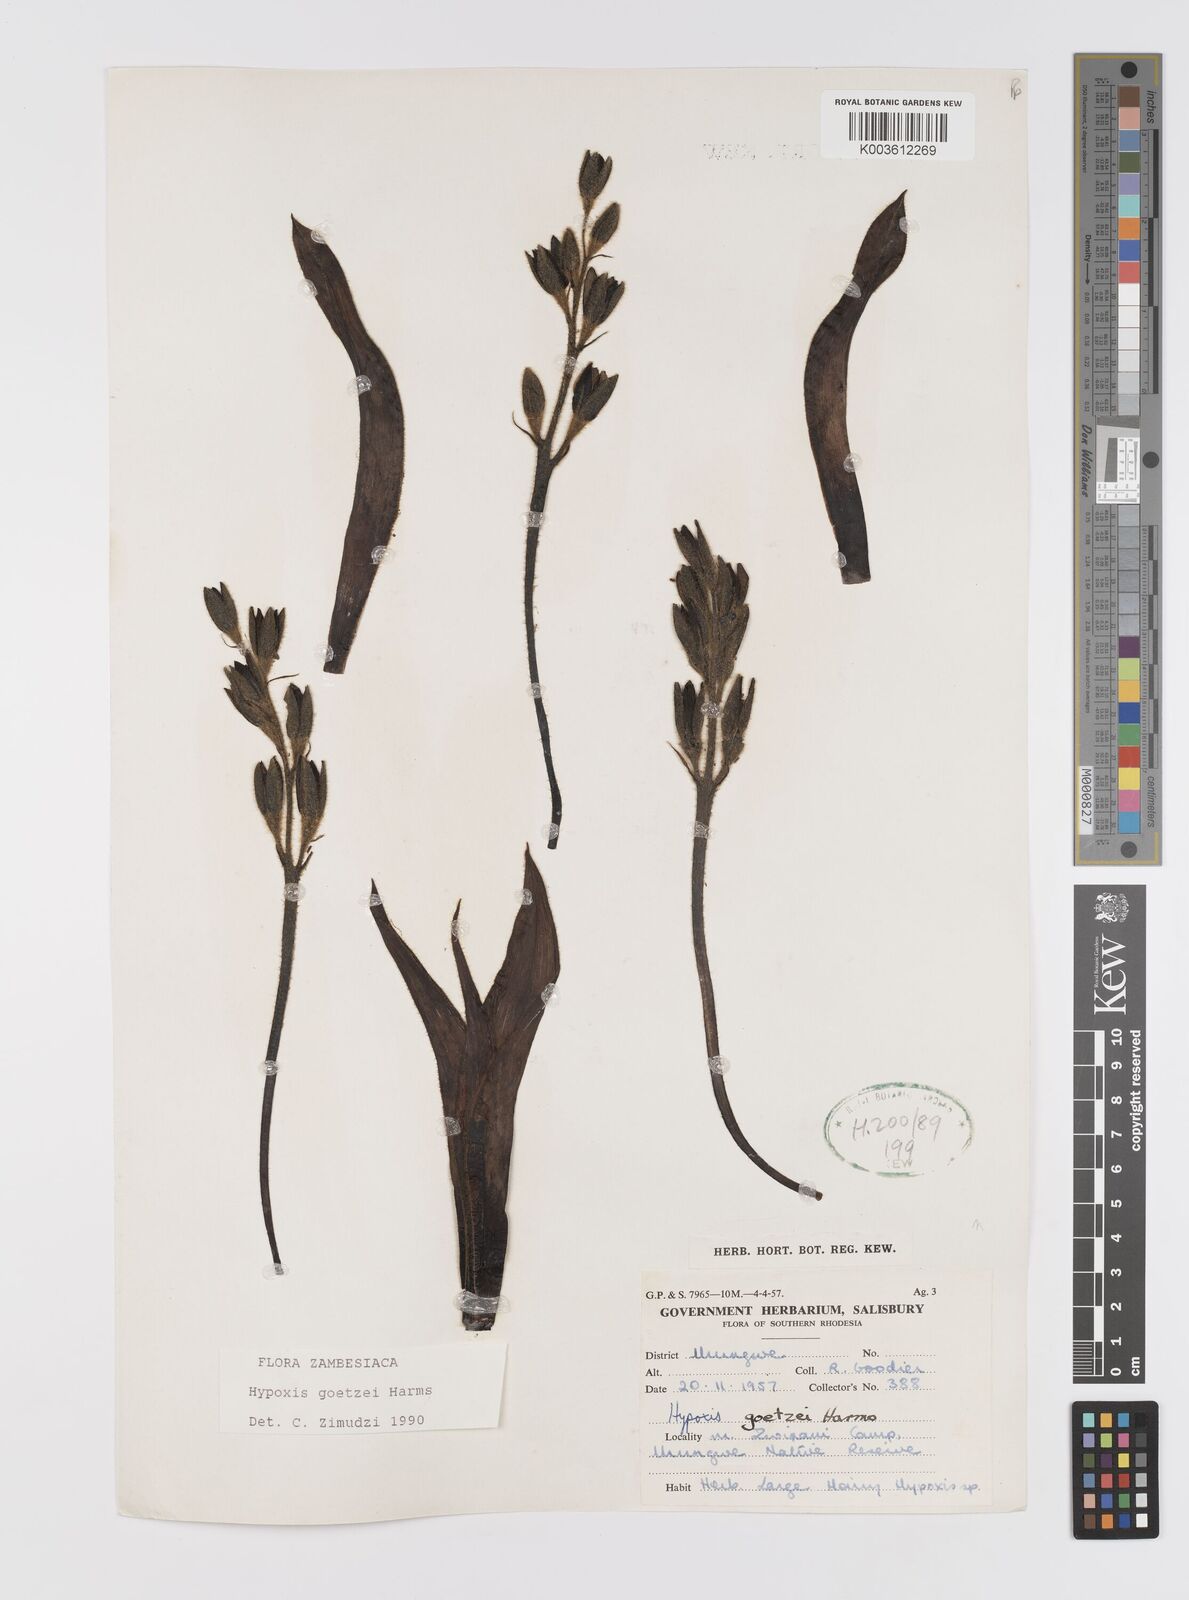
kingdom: Plantae
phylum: Tracheophyta
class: Liliopsida
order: Asparagales
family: Hypoxidaceae
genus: Hypoxis
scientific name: Hypoxis goetzei
